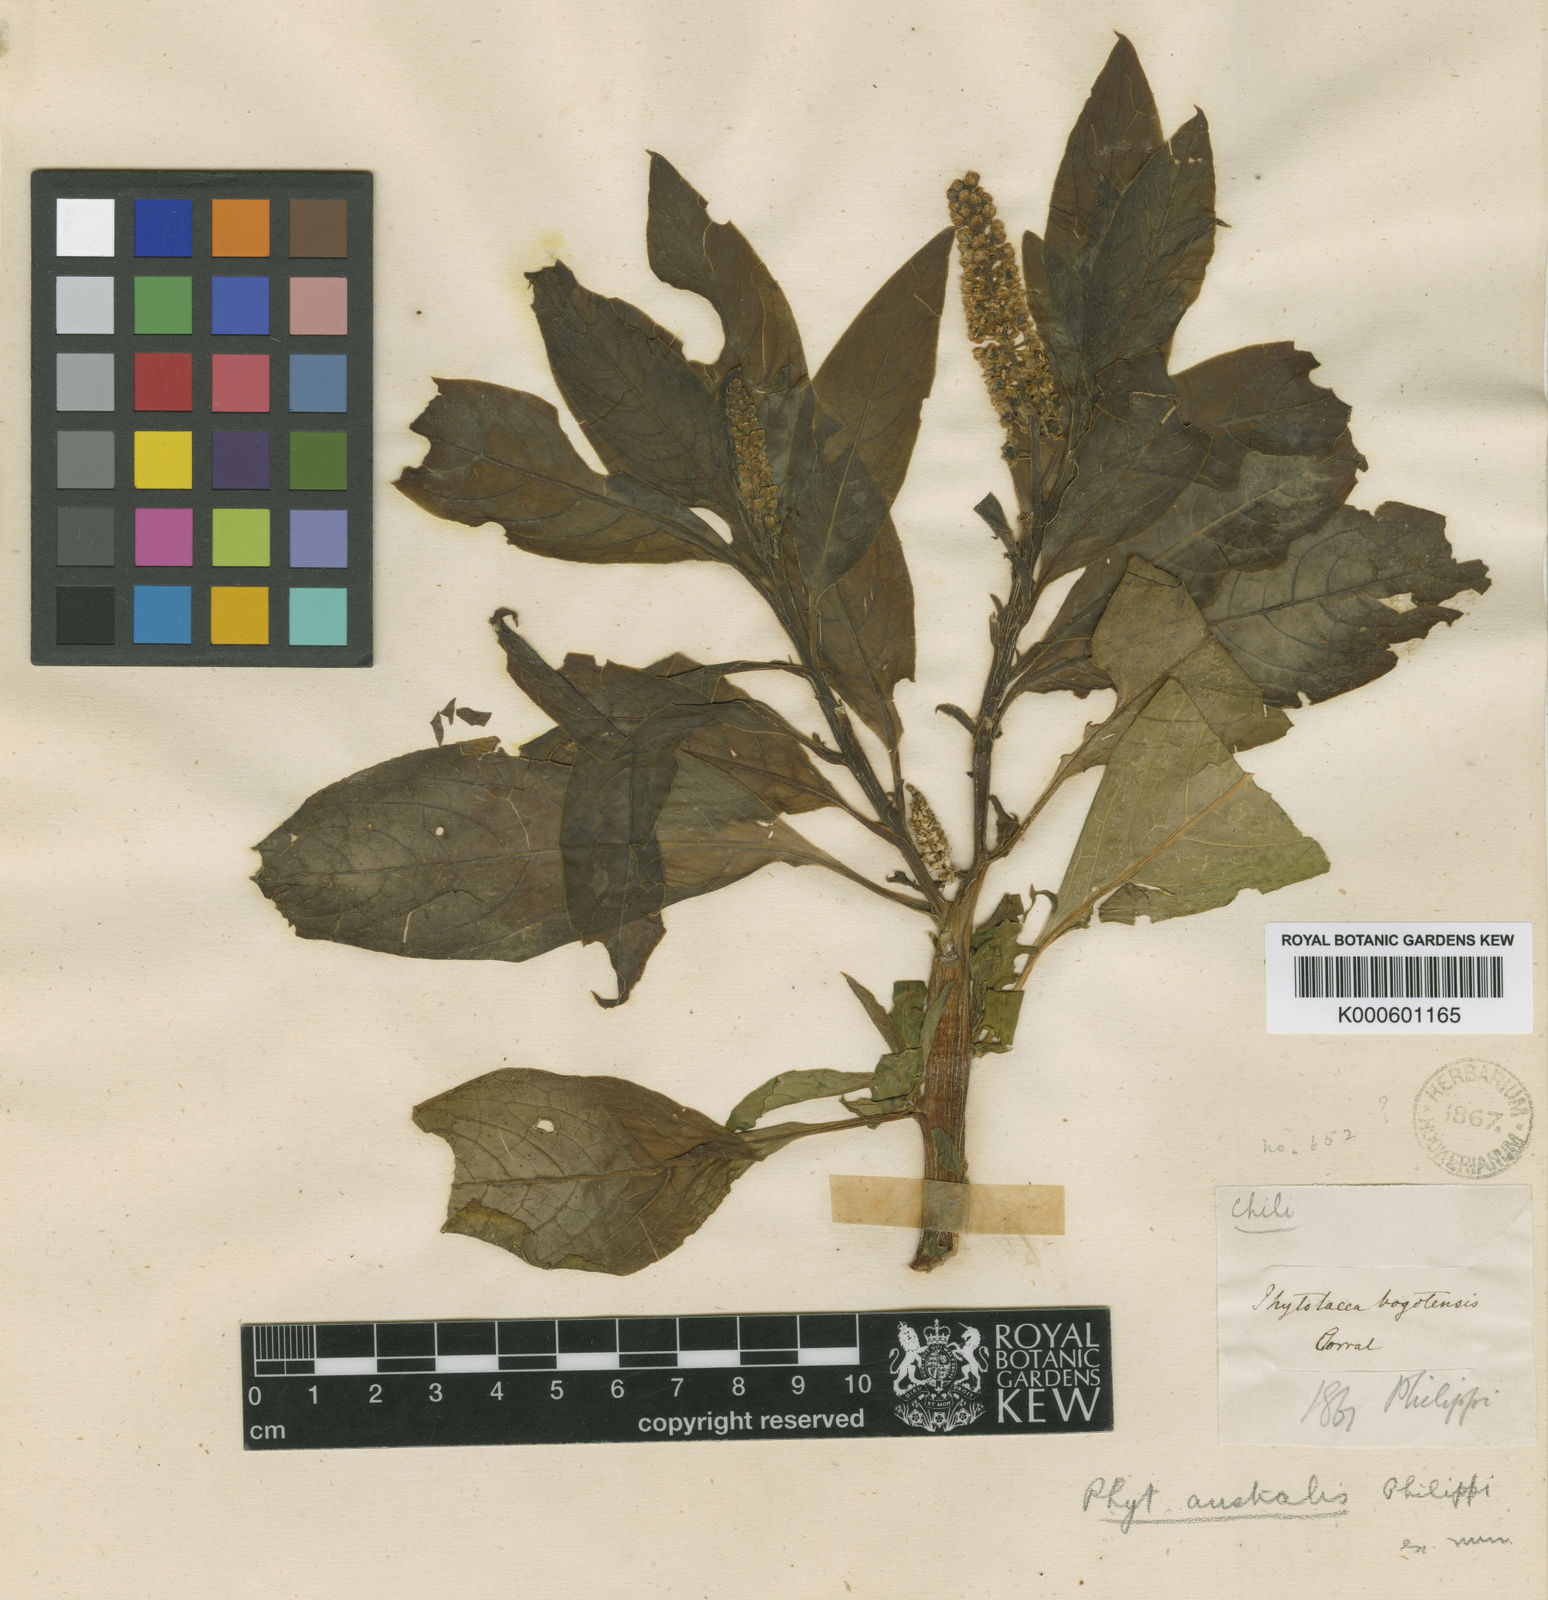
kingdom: Plantae
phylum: Tracheophyta
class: Magnoliopsida
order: Caryophyllales
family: Phytolaccaceae
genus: Phytolacca
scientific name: Phytolacca bogotensis
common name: Southern pokeweed
